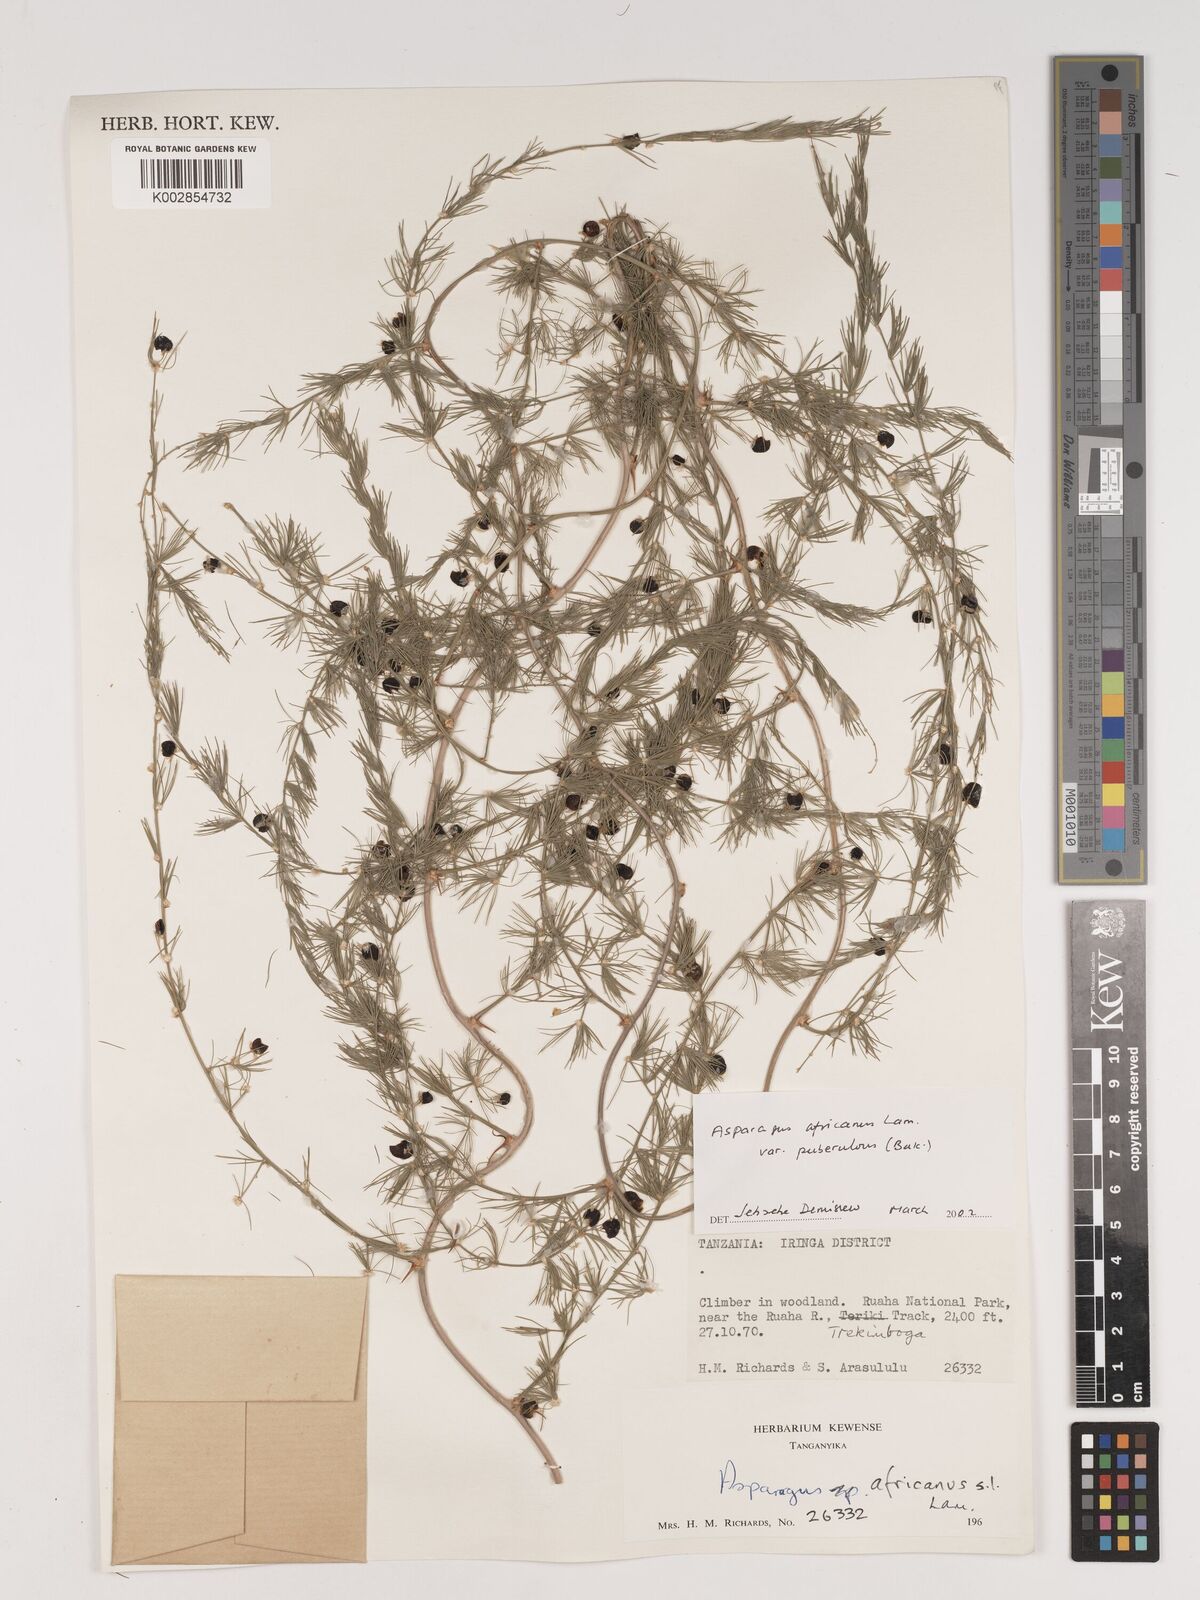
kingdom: Plantae
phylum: Tracheophyta
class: Liliopsida
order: Asparagales
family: Asparagaceae
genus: Asparagus
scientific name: Asparagus africanus
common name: Asparagus-fern
